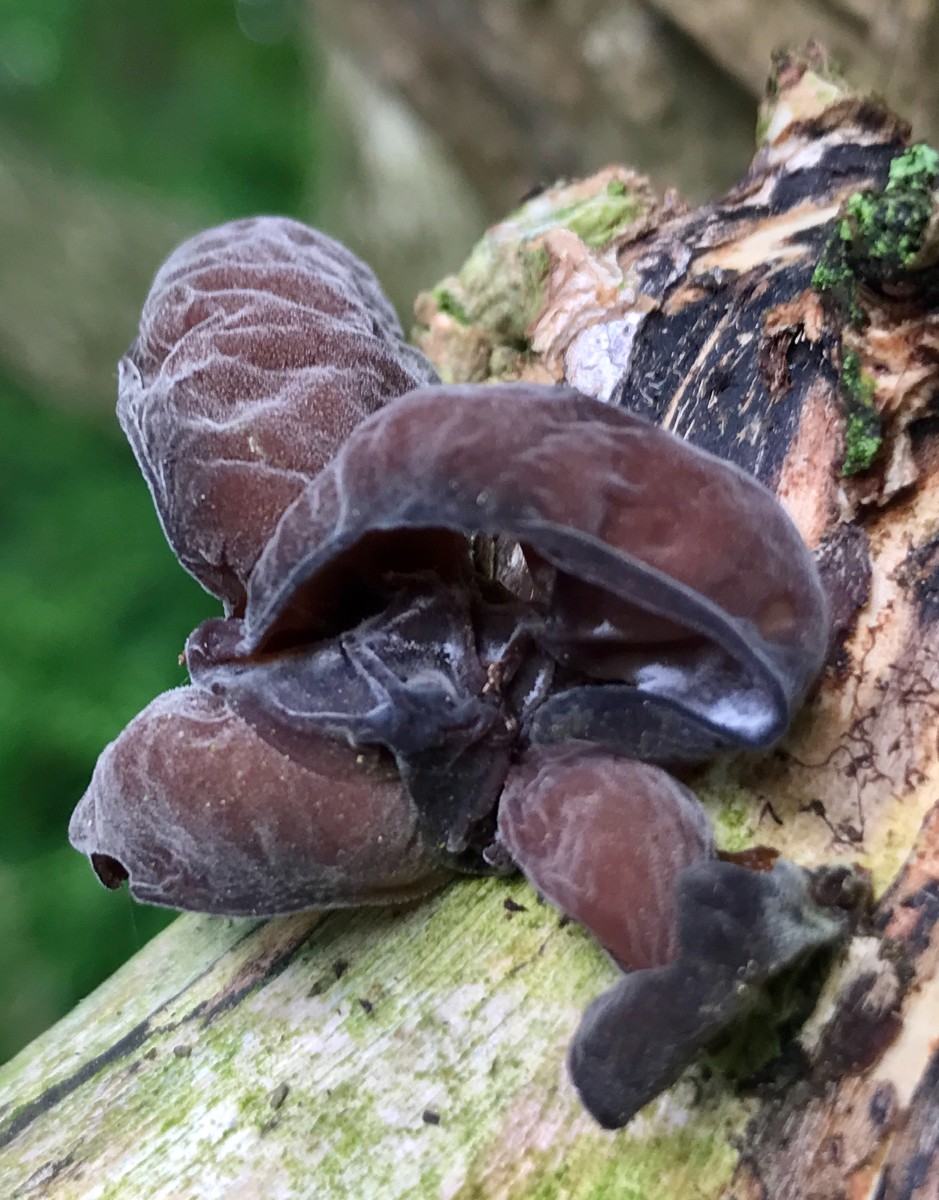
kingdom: Fungi
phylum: Basidiomycota
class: Agaricomycetes
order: Auriculariales
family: Auriculariaceae
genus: Auricularia
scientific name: Auricularia auricula-judae
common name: almindelig judasøre
